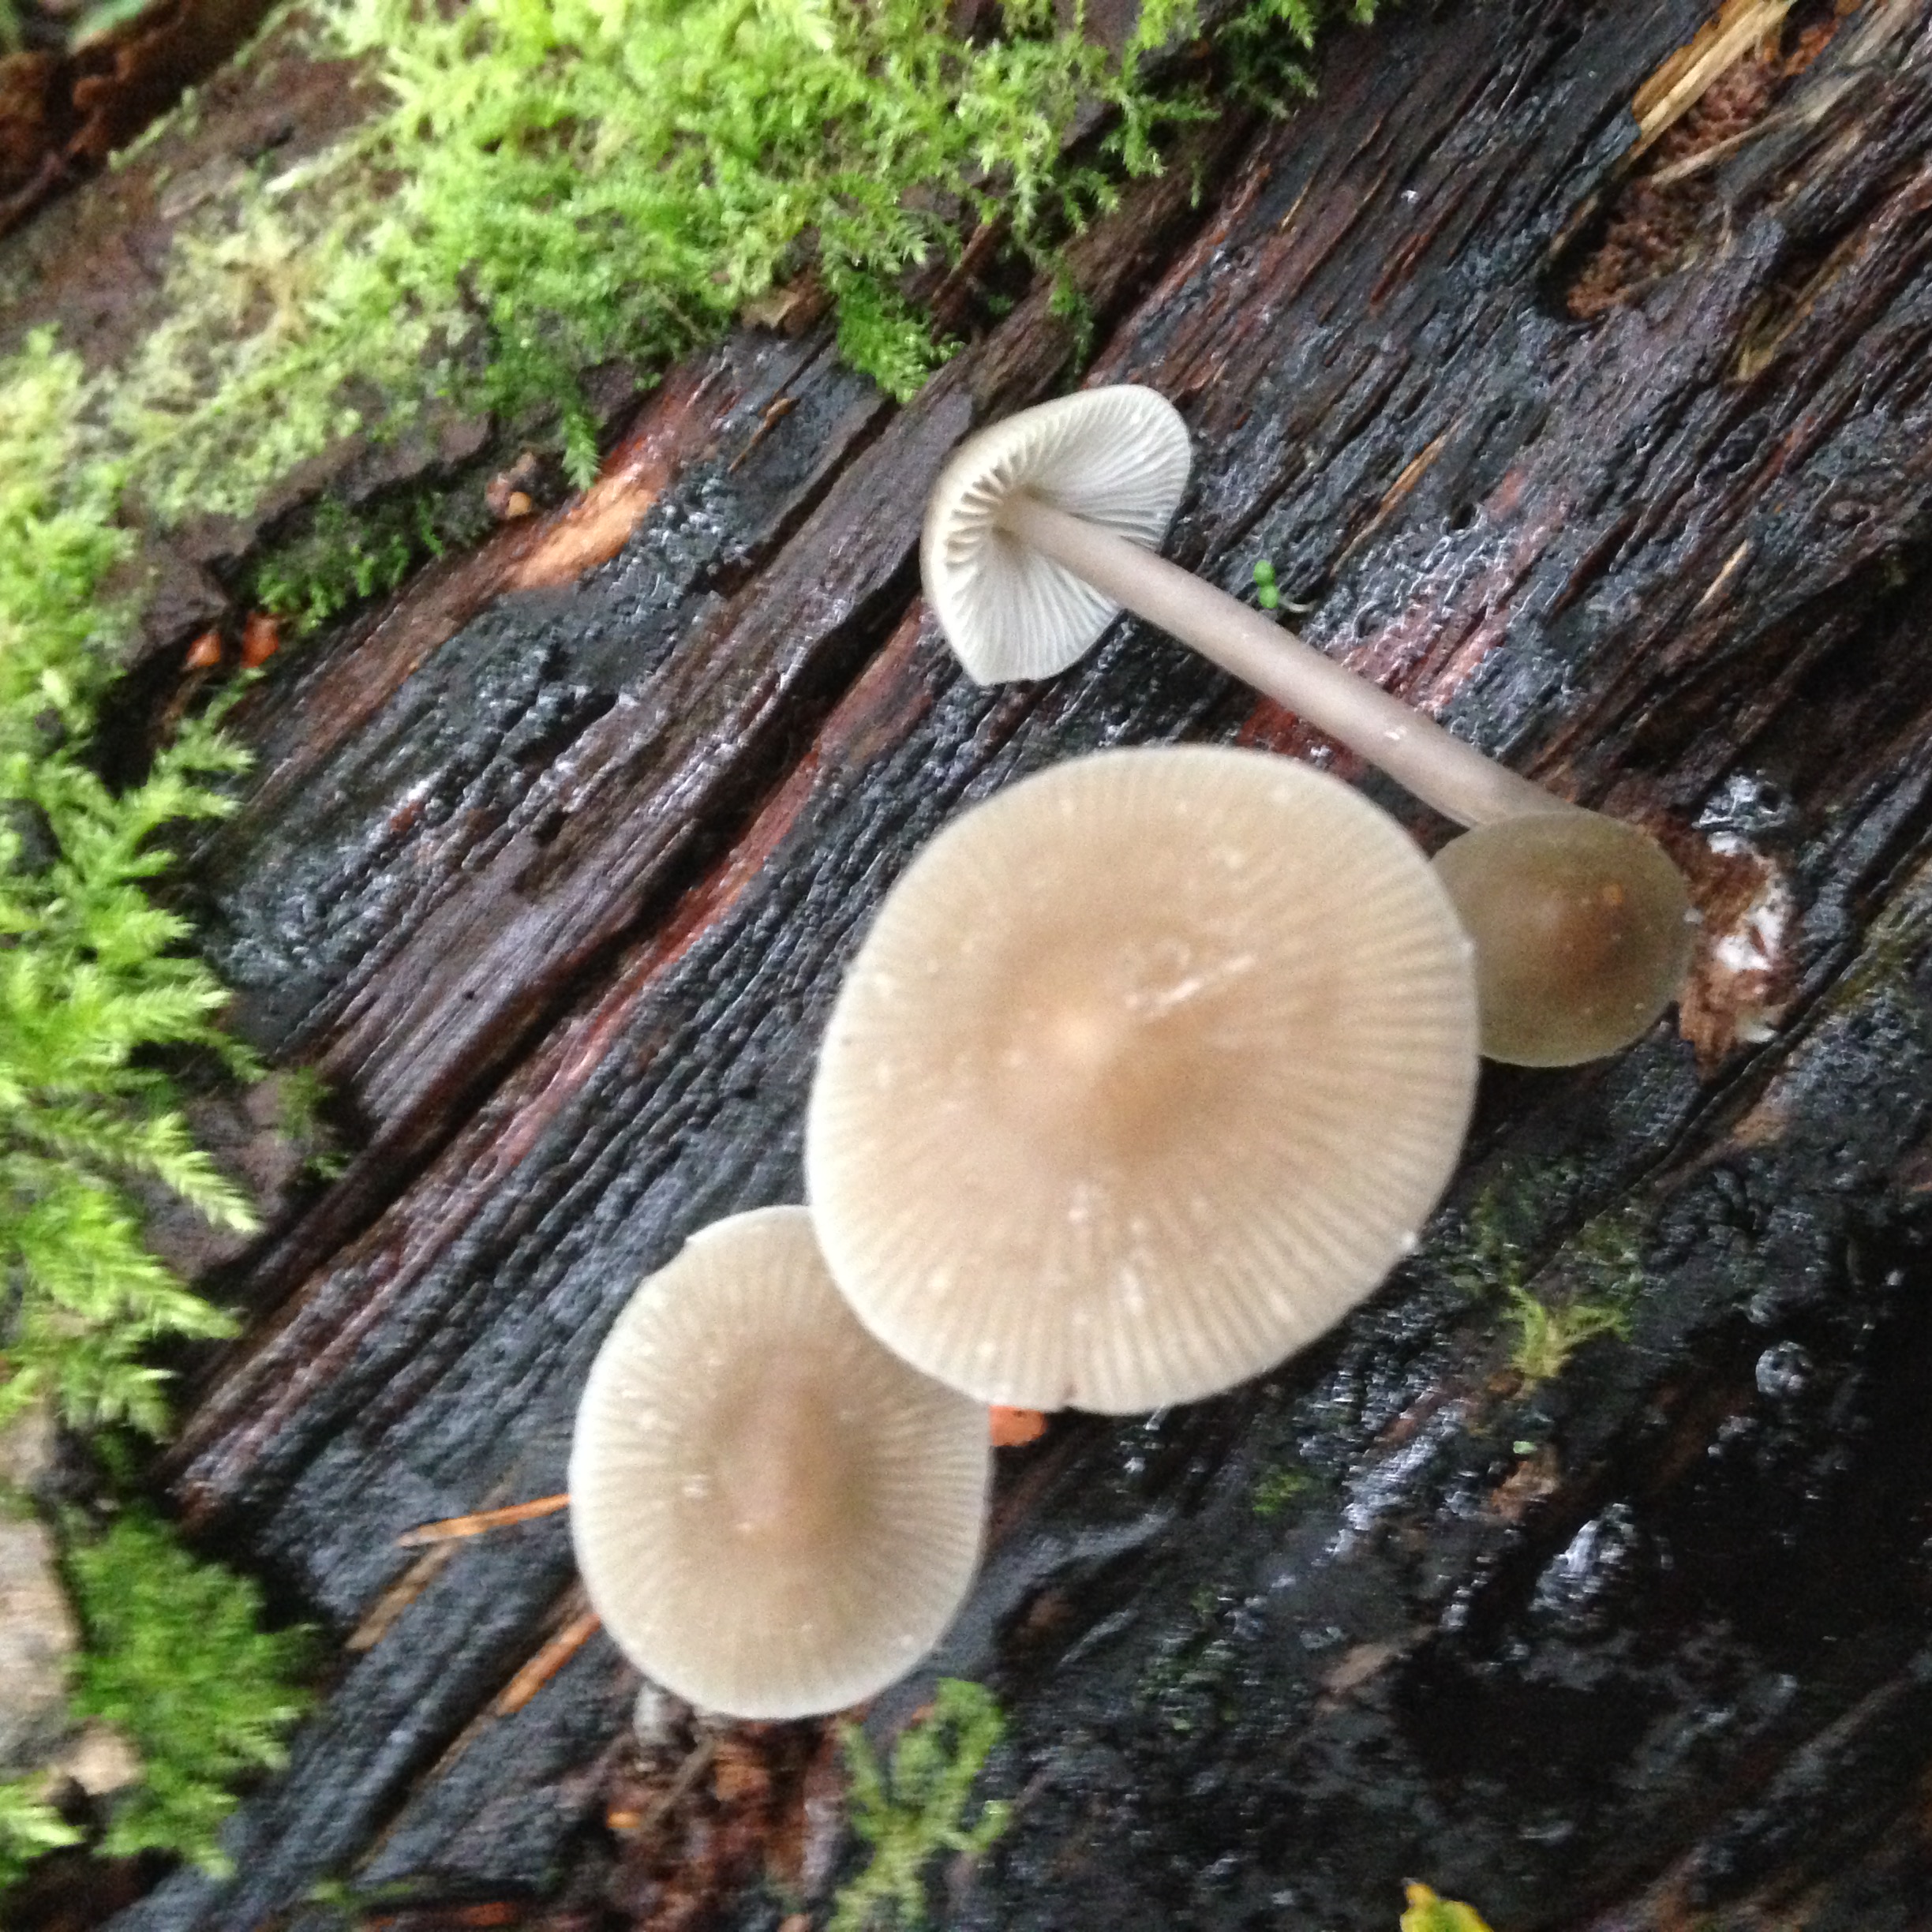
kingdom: Fungi
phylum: Basidiomycota
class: Agaricomycetes
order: Agaricales
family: Mycenaceae
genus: Mycena
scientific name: Mycena galericulata
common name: Bonnet mycena
